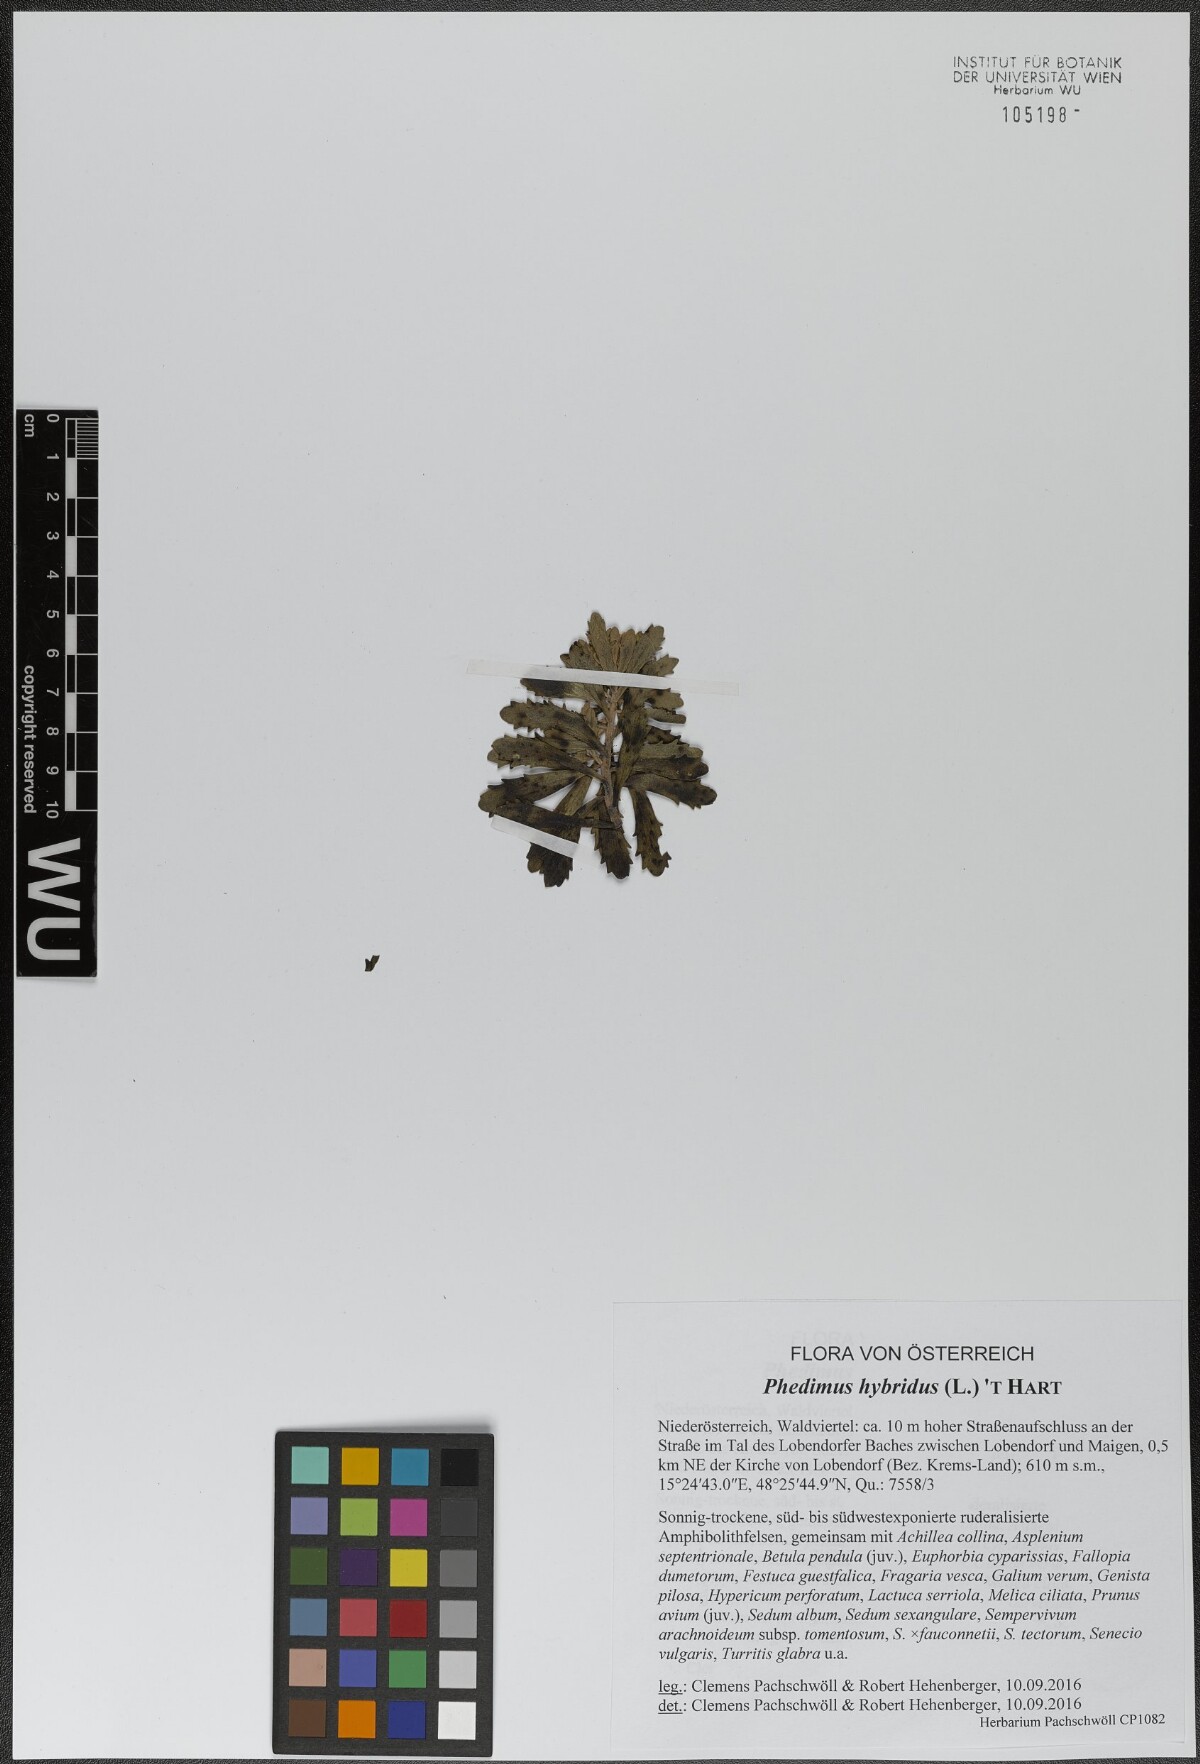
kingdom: Plantae
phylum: Tracheophyta
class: Magnoliopsida
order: Saxifragales
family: Crassulaceae
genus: Phedimus
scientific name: Phedimus hybridus
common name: Hybrid stonecrop
